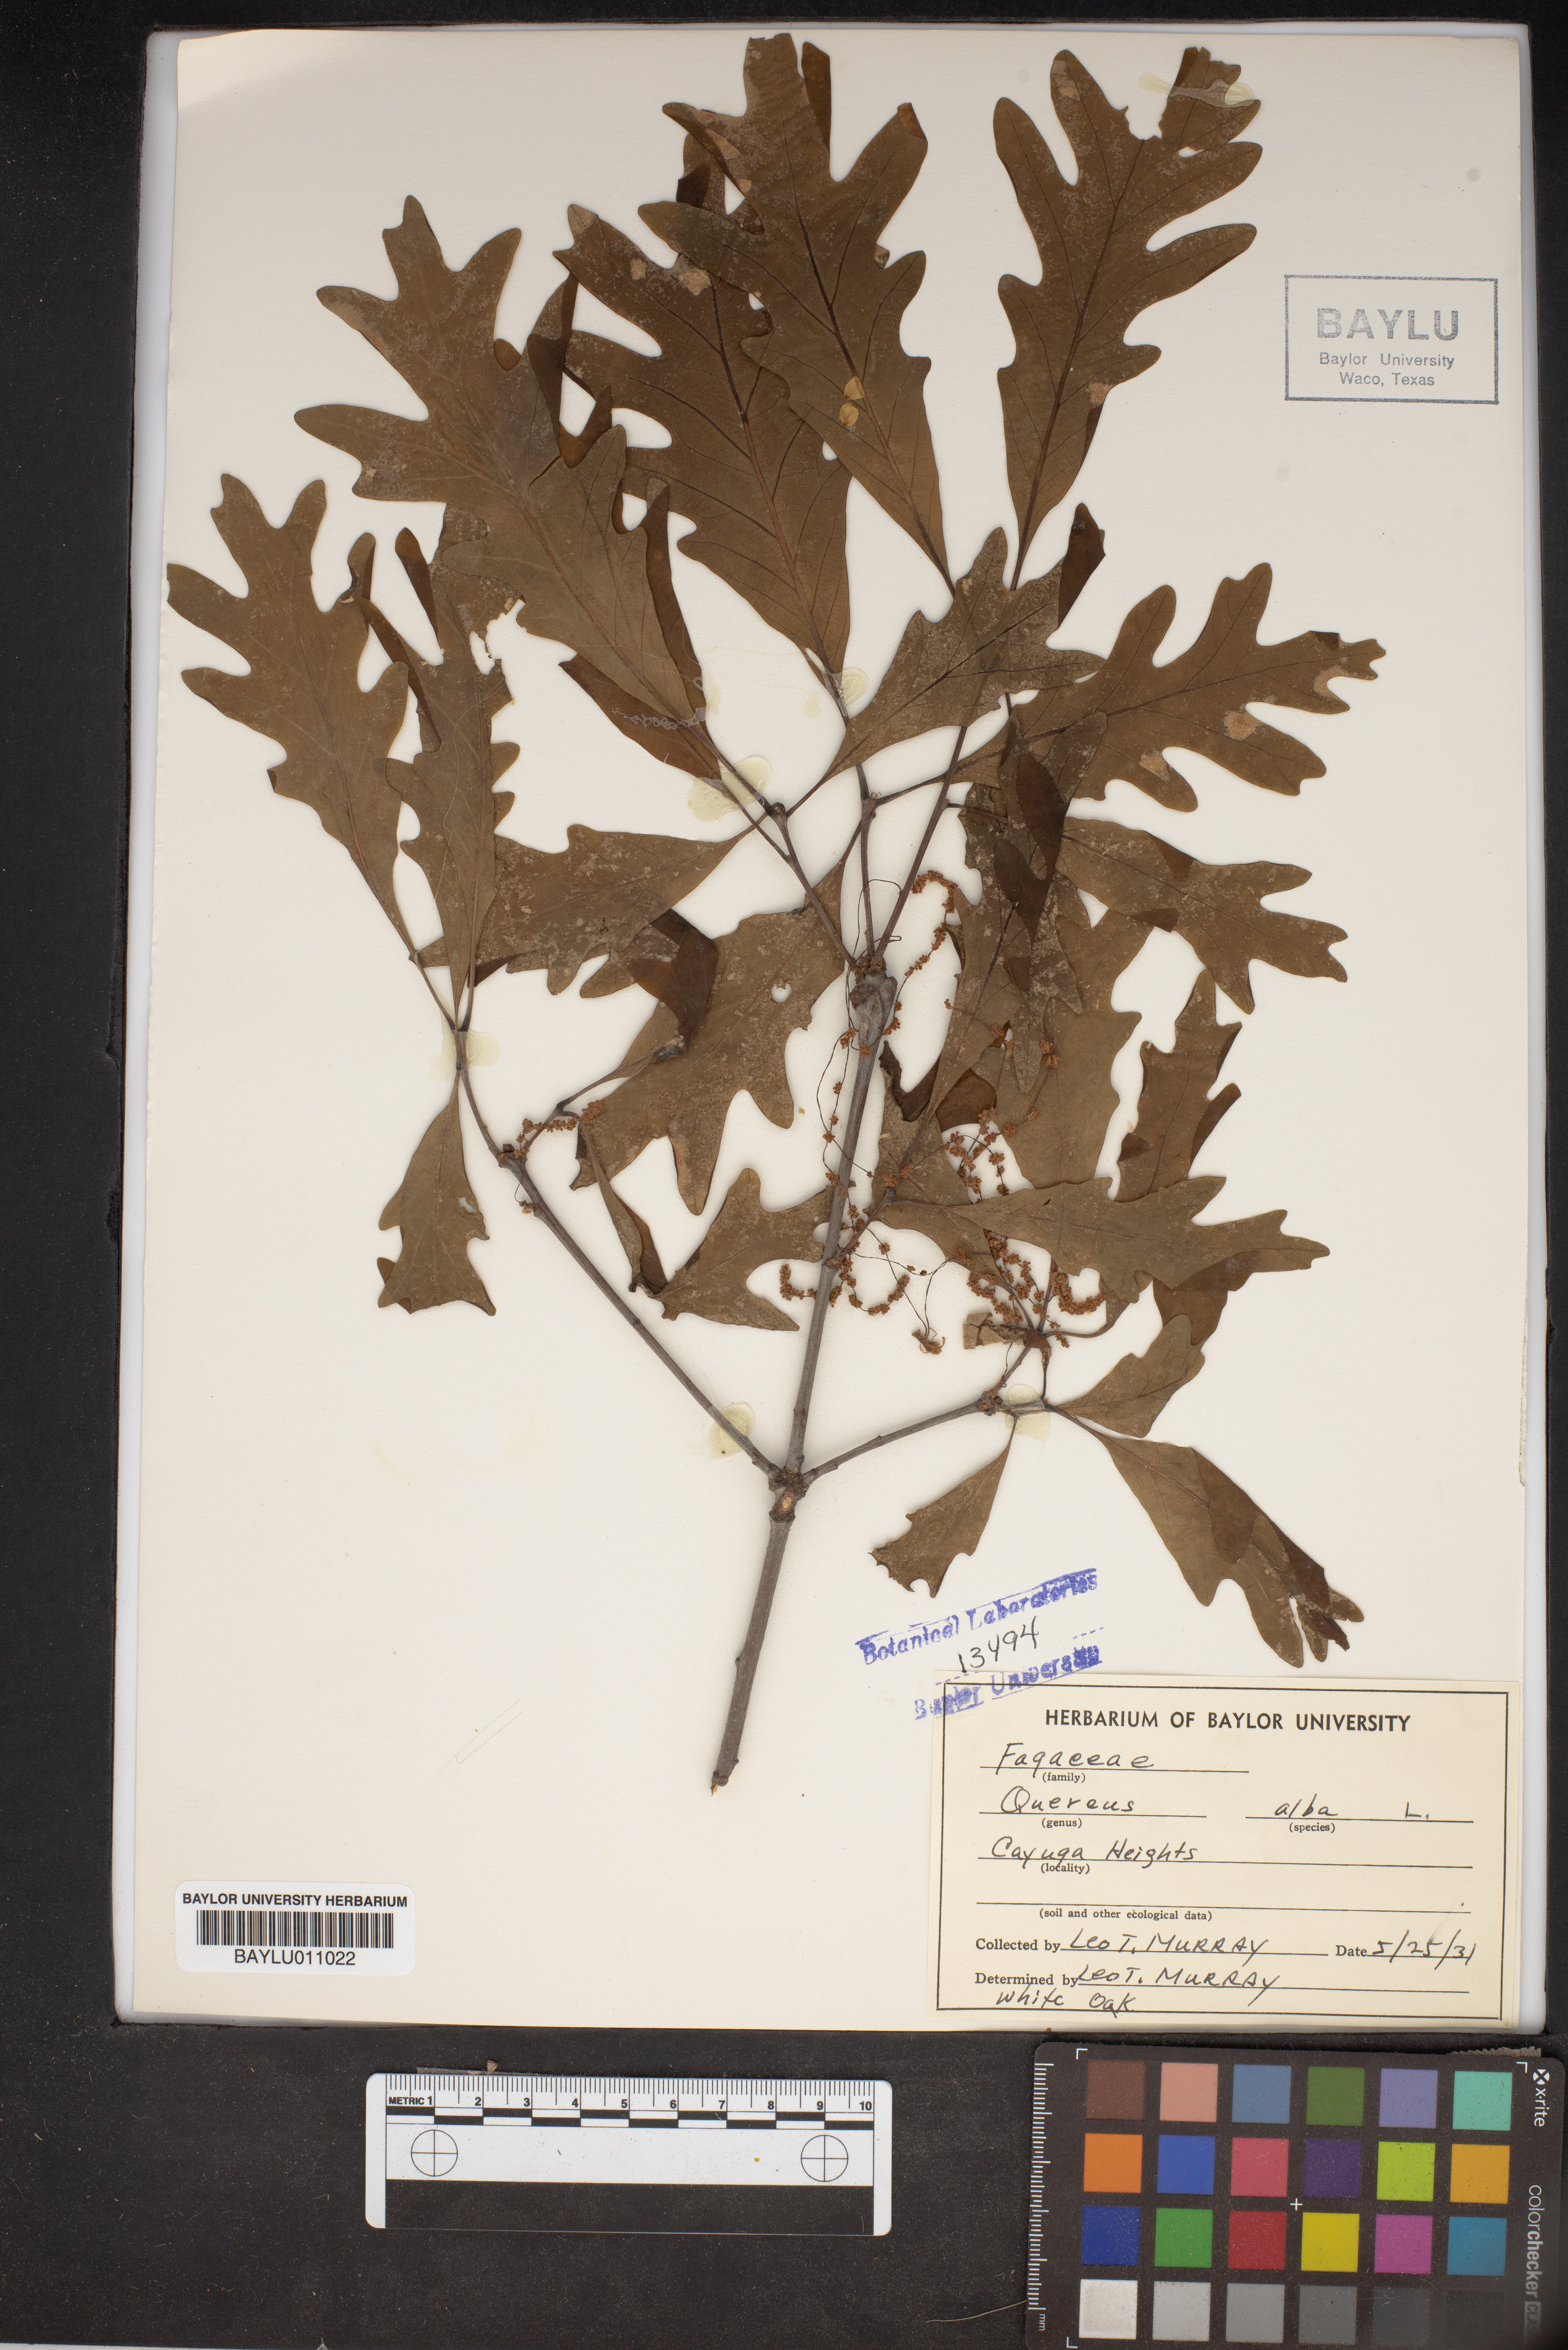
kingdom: Plantae
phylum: Tracheophyta
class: Magnoliopsida
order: Fagales
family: Fagaceae
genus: Quercus
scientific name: Quercus alba
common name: White oak
